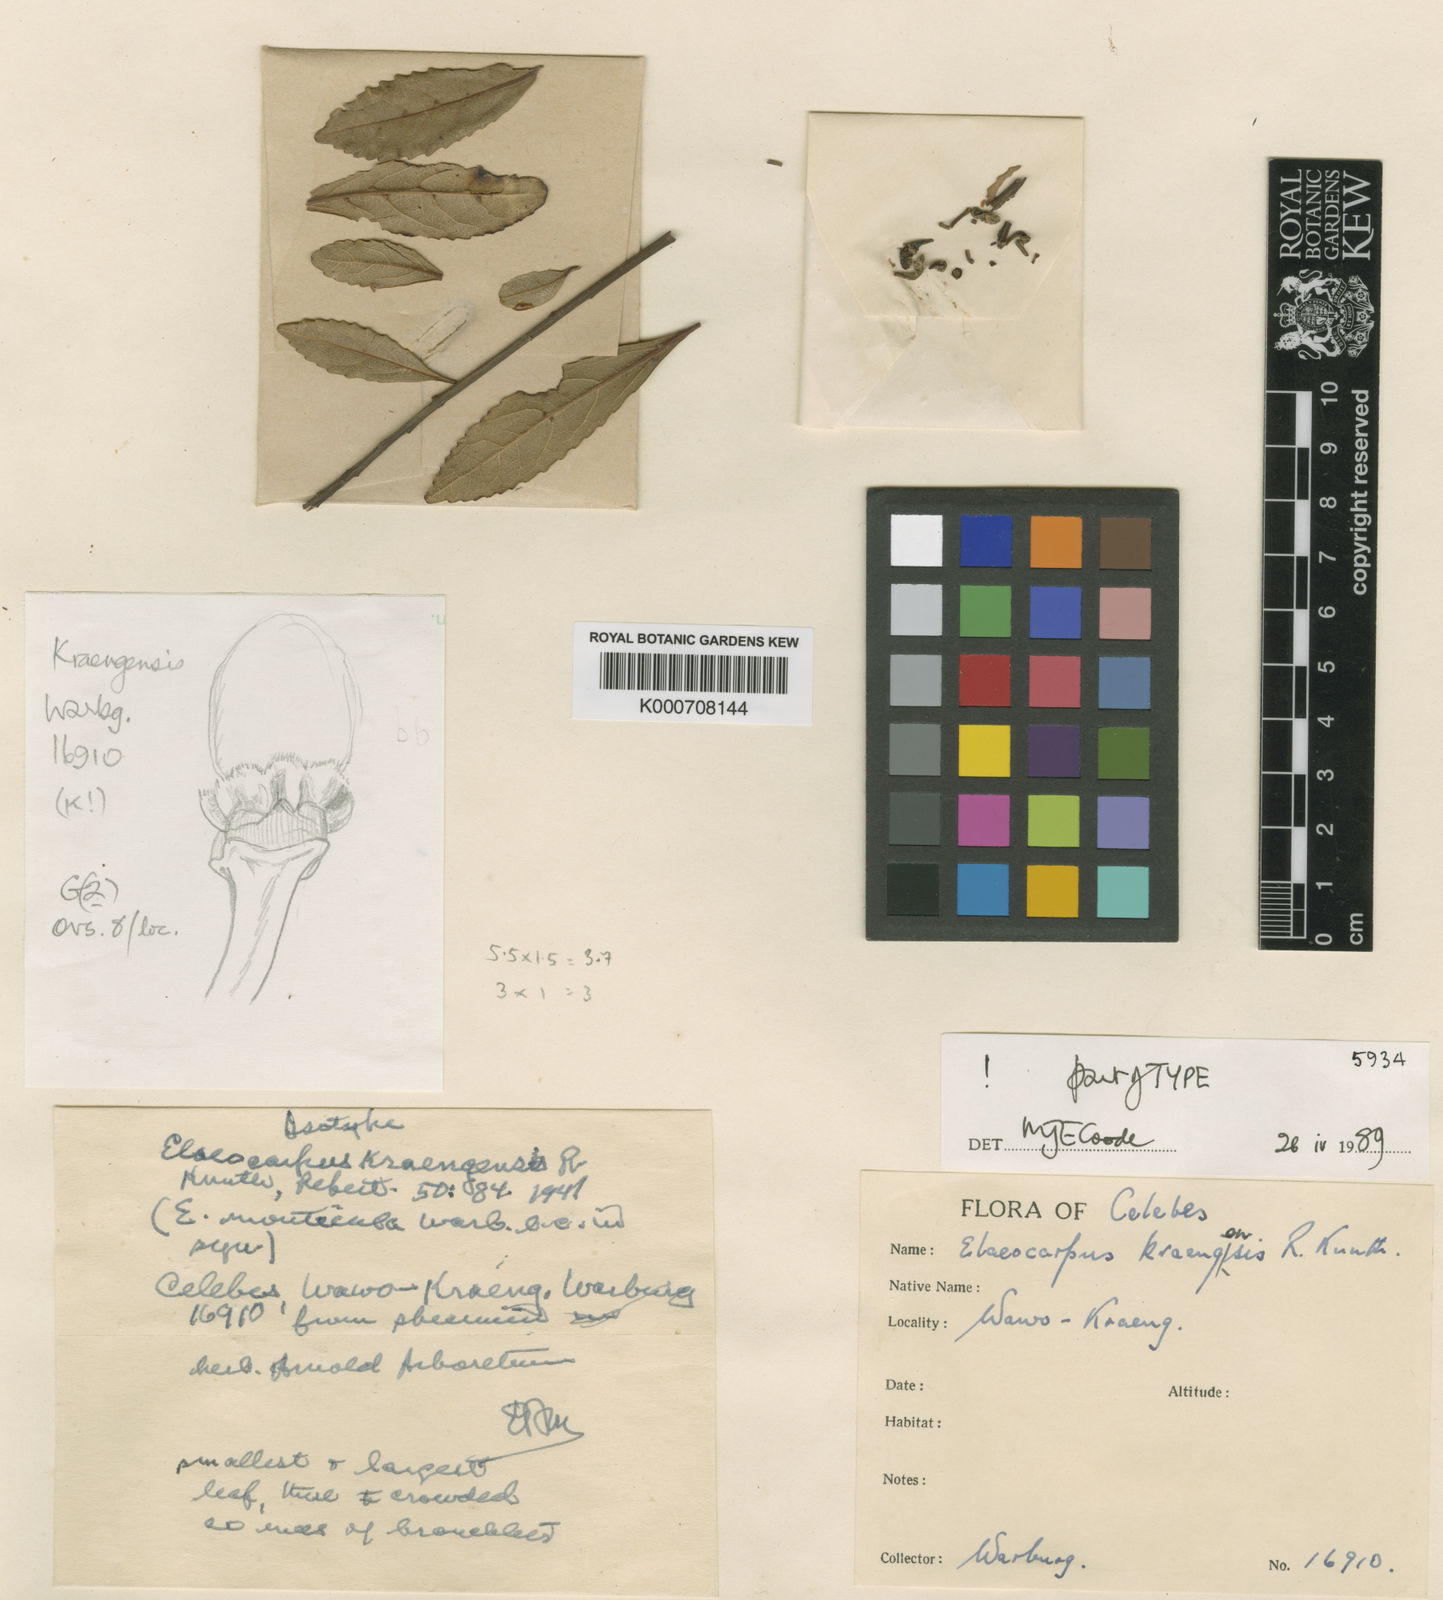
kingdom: Plantae
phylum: Tracheophyta
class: Magnoliopsida
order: Oxalidales
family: Elaeocarpaceae
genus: Elaeocarpus
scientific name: Elaeocarpus kraengensis
